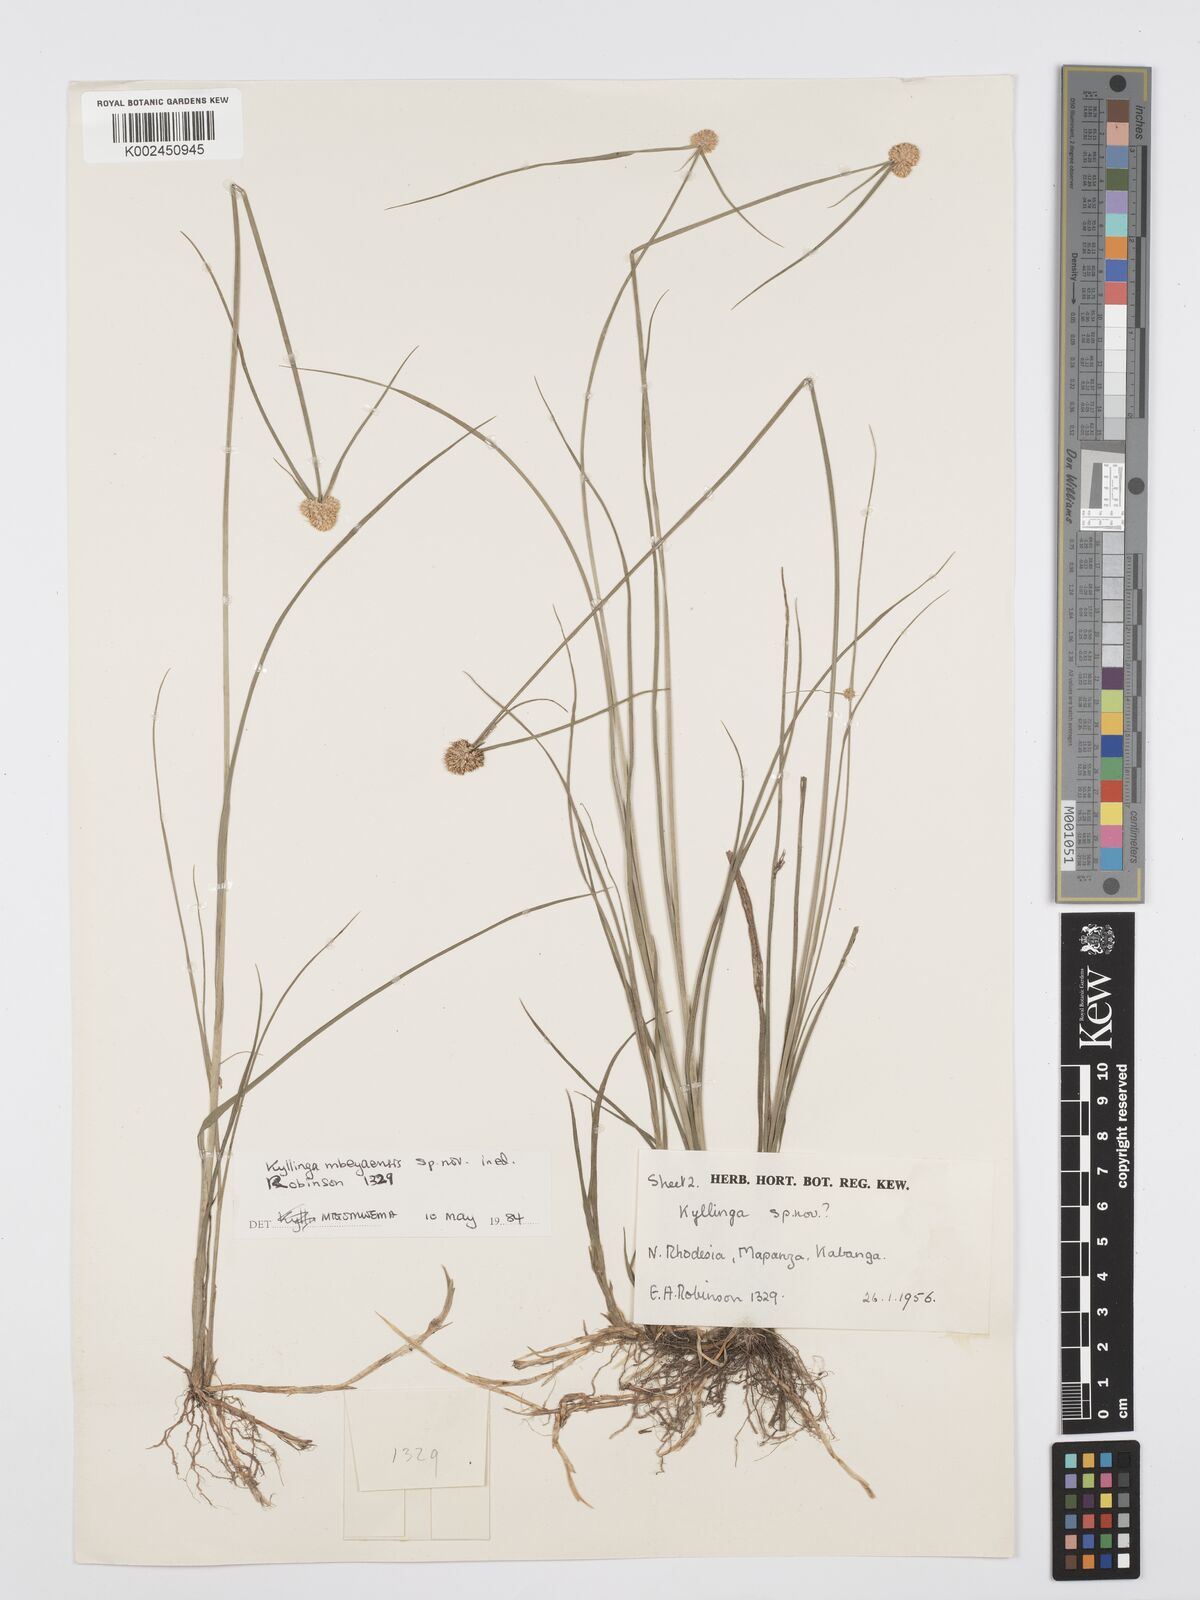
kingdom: Plantae
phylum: Tracheophyta
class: Liliopsida
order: Poales
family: Cyperaceae
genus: Cyperus
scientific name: Cyperus
